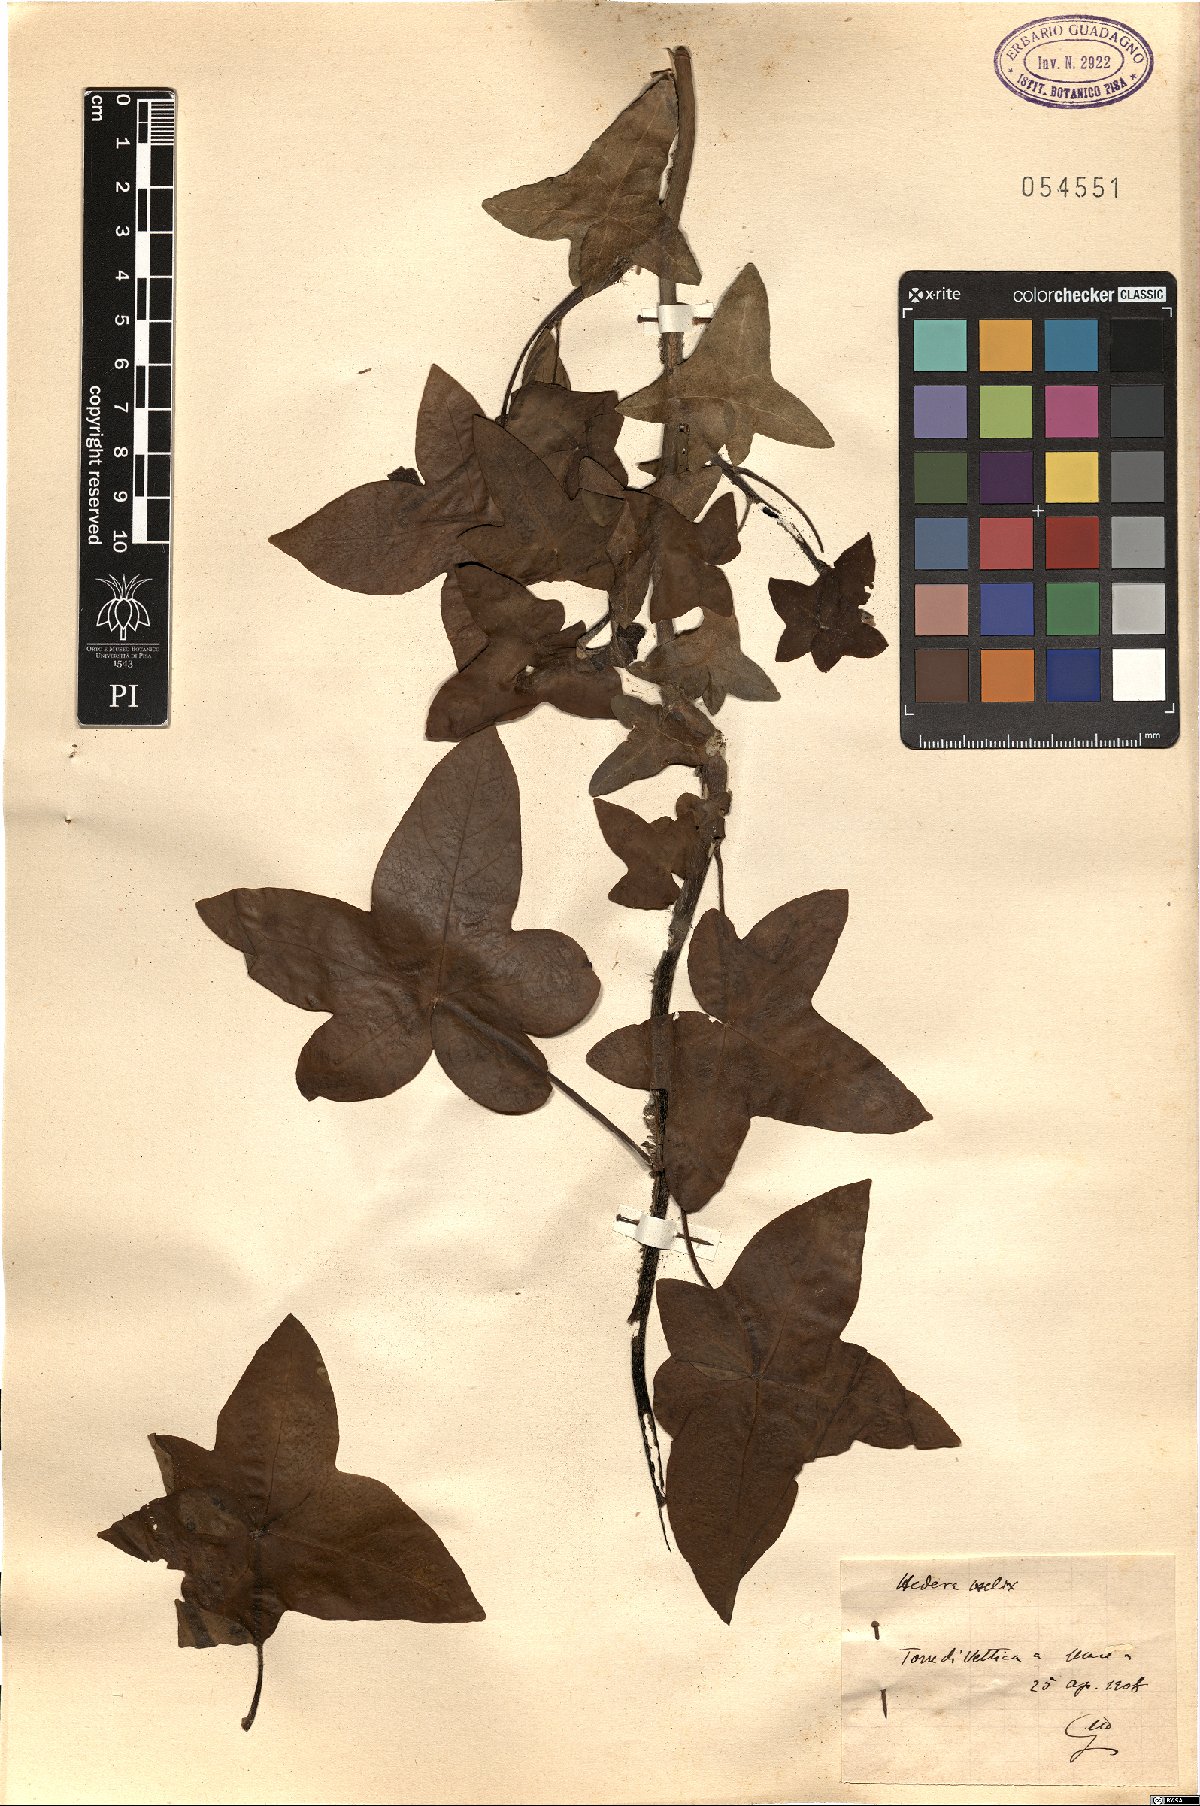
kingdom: Plantae
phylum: Tracheophyta
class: Magnoliopsida
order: Apiales
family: Araliaceae
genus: Hedera
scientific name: Hedera helix
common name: Ivy
